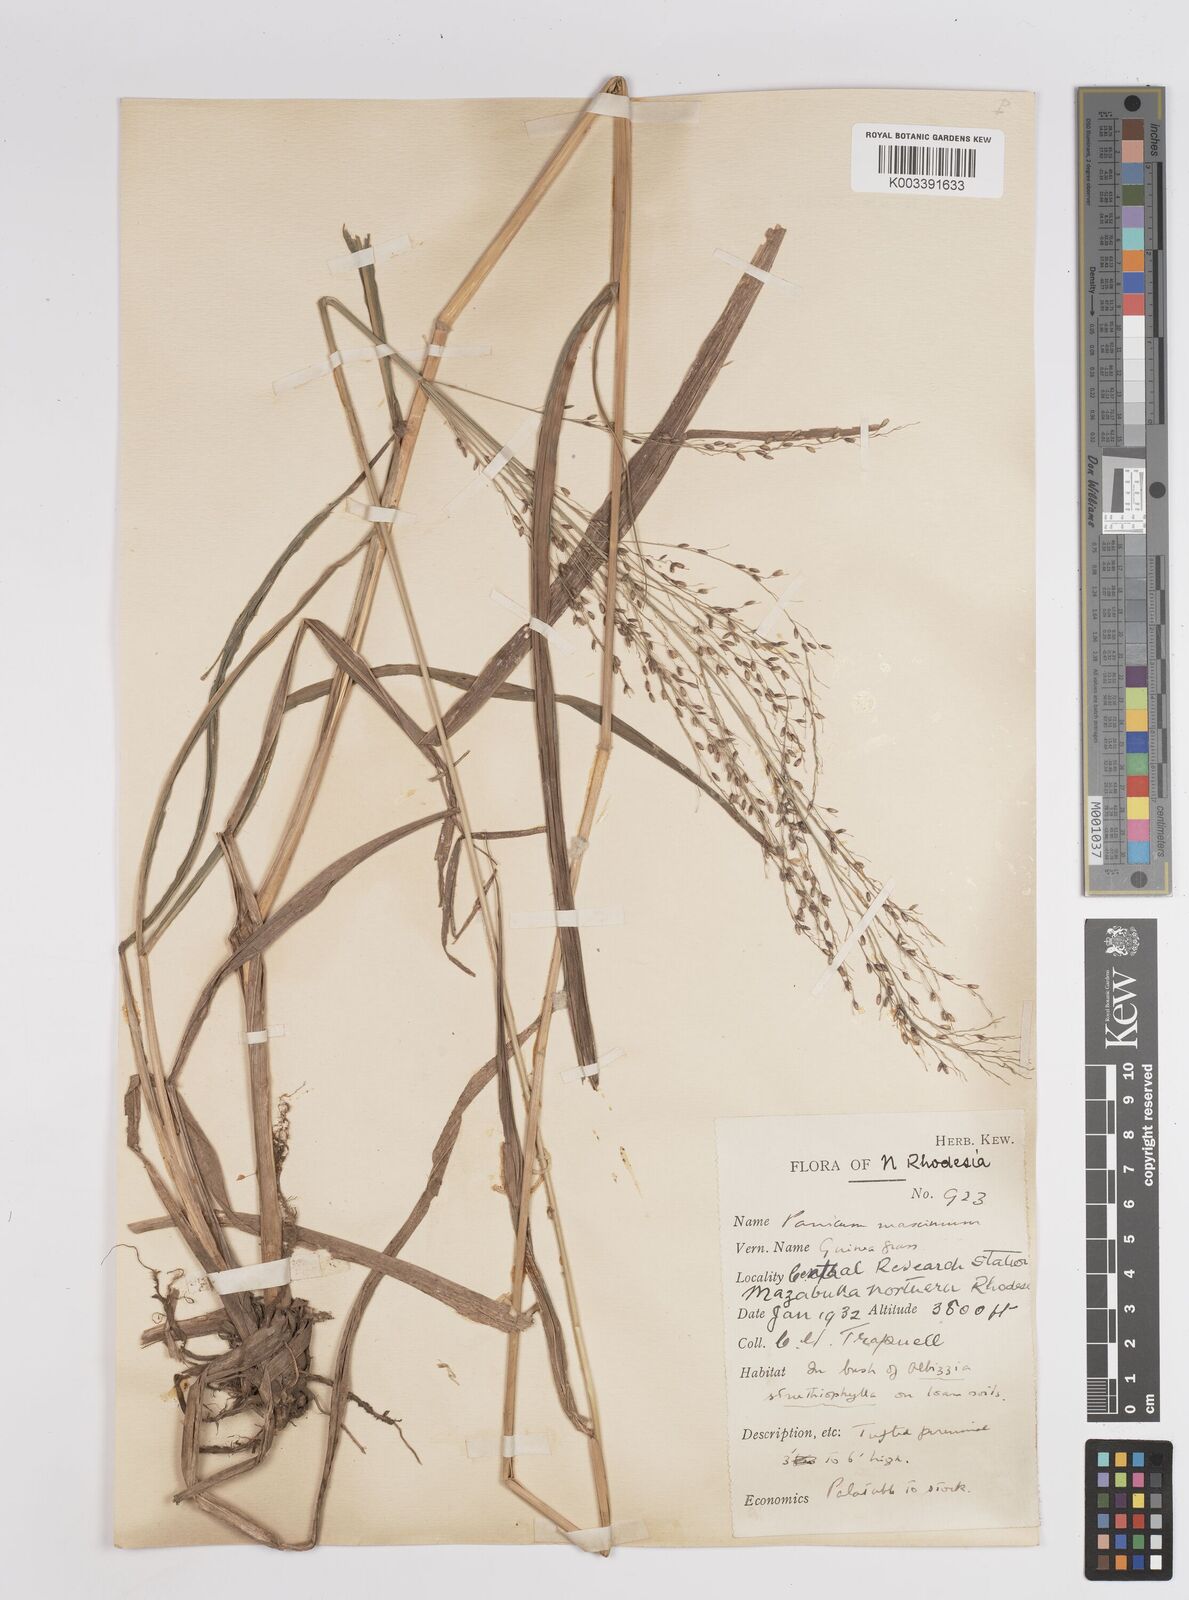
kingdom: Plantae
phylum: Tracheophyta
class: Liliopsida
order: Poales
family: Poaceae
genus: Megathyrsus
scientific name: Megathyrsus maximus
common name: Guineagrass
